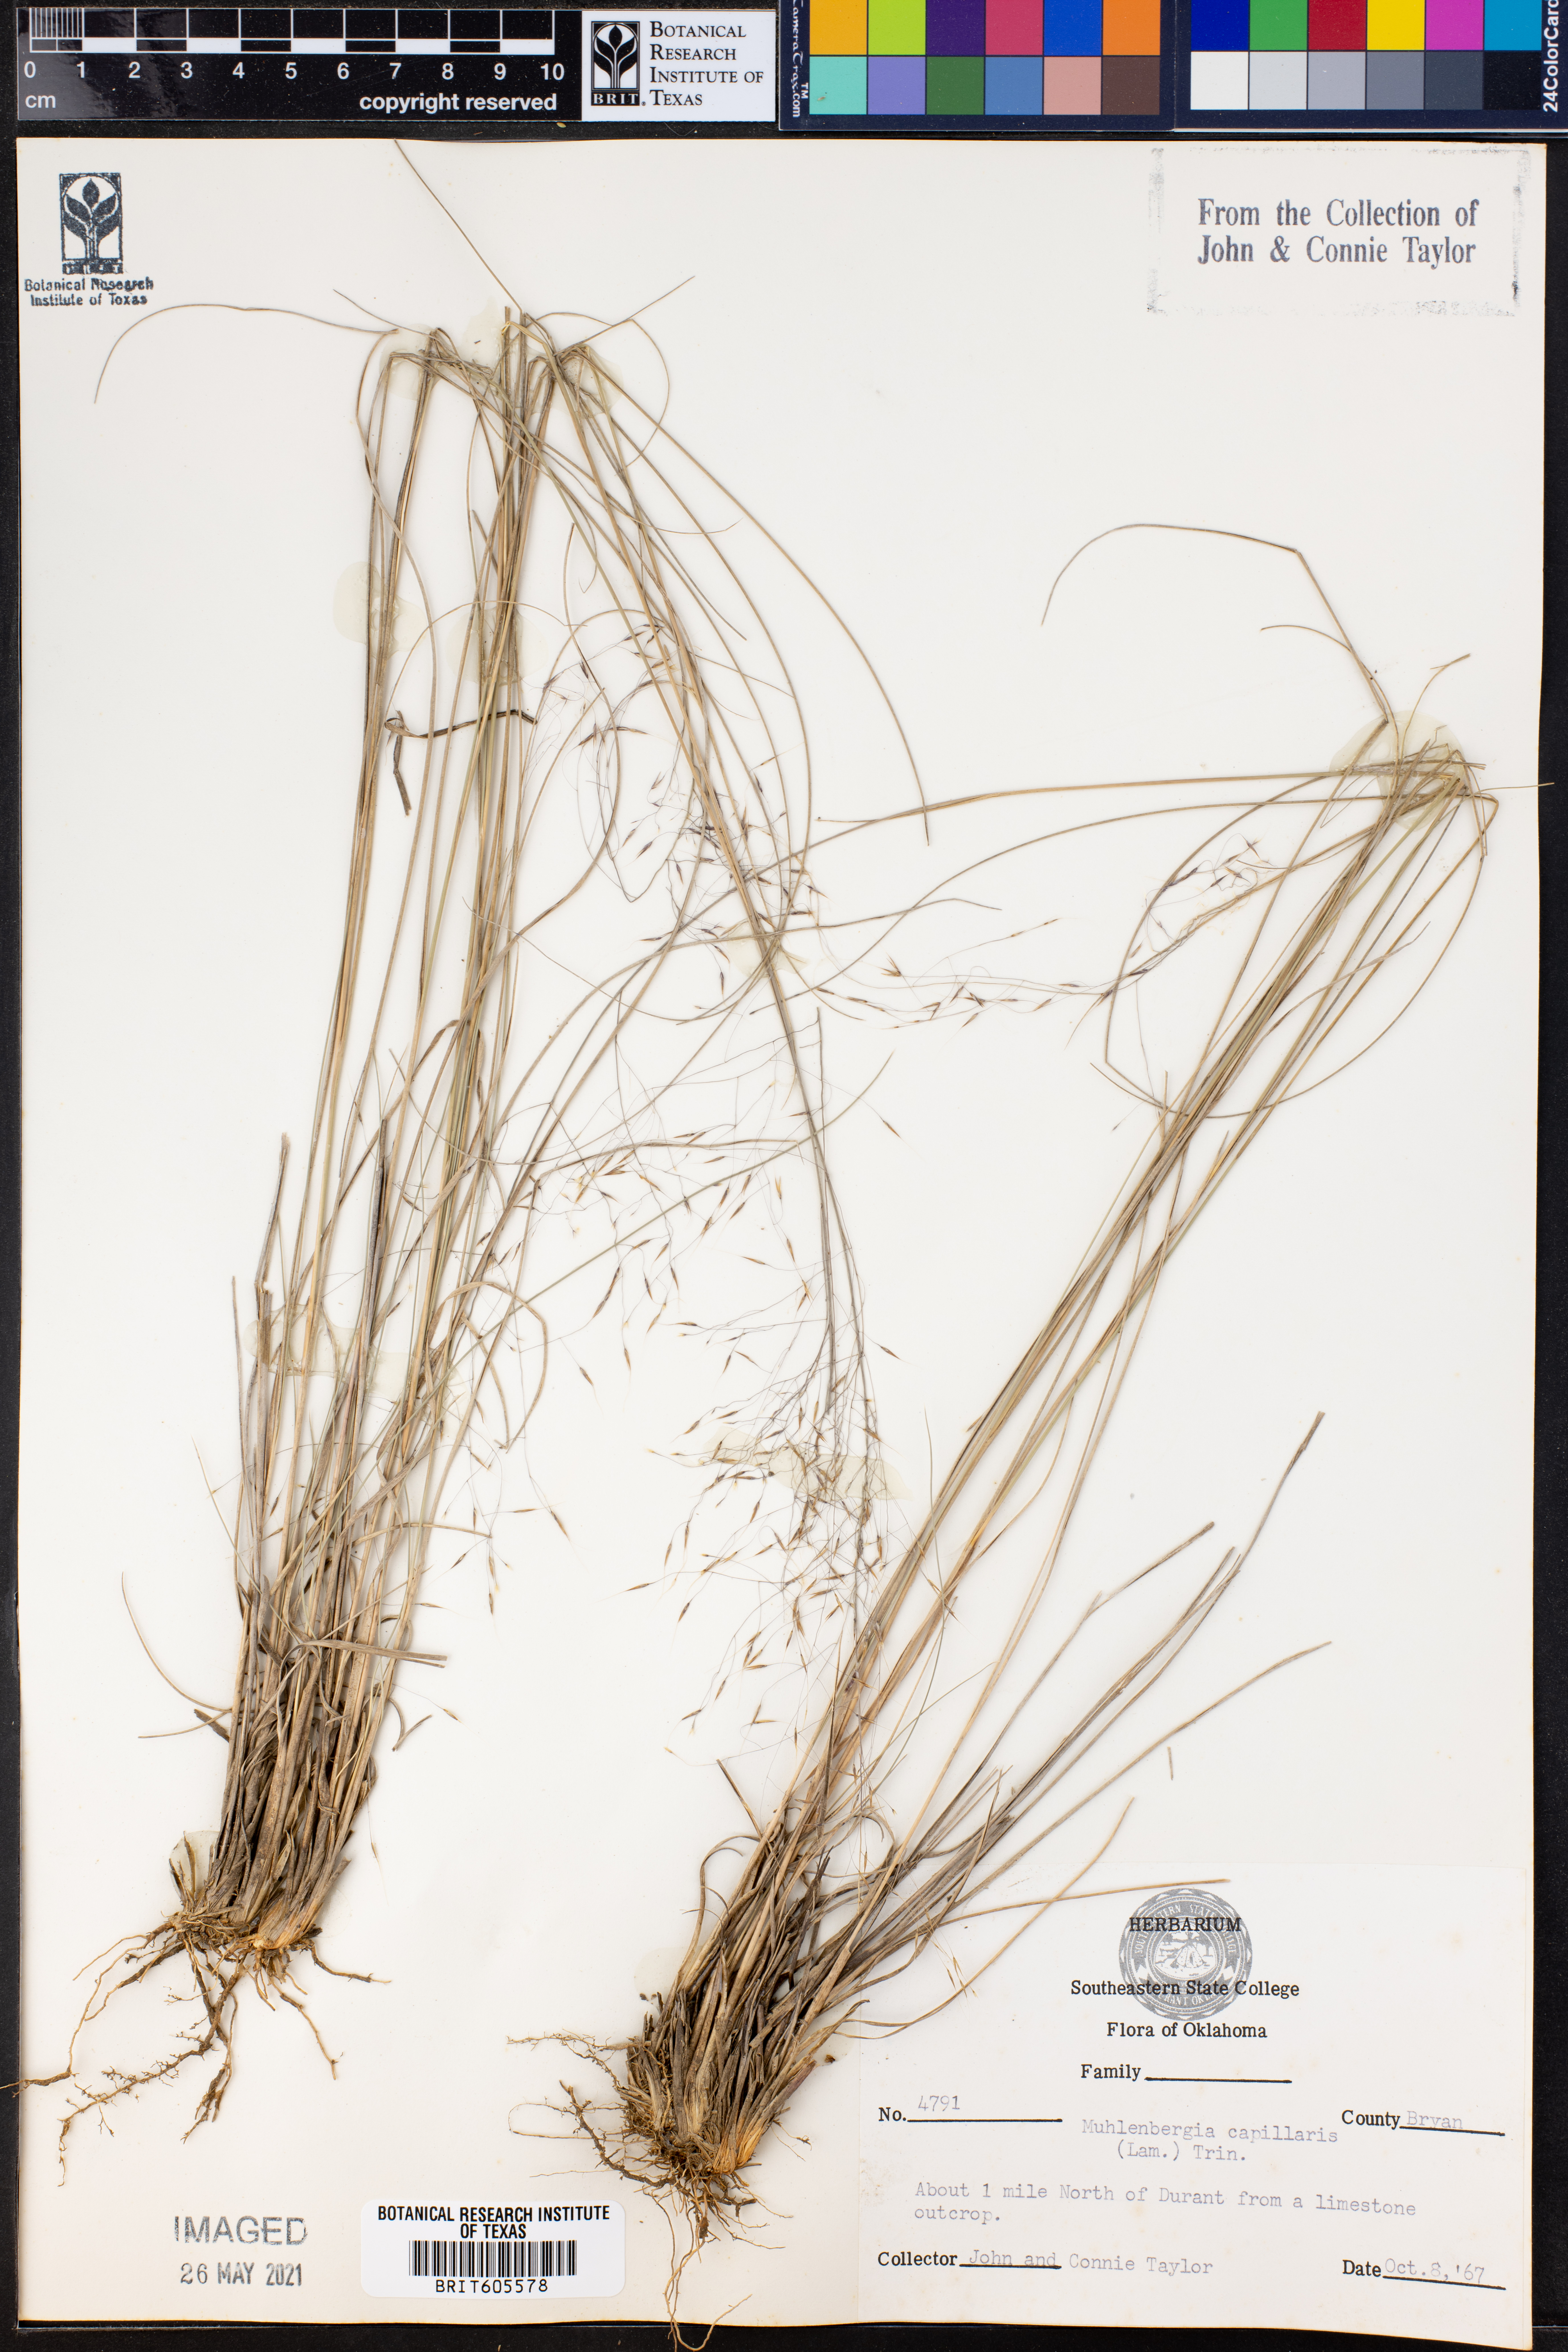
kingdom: Plantae
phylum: Tracheophyta
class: Liliopsida
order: Poales
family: Poaceae
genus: Muhlenbergia
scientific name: Muhlenbergia capillaris
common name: Purple grass
